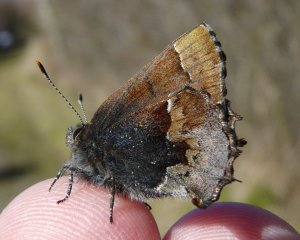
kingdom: Animalia
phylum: Arthropoda
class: Insecta
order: Lepidoptera
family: Lycaenidae
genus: Incisalia
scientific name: Incisalia henrici
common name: Henry's Elfin
